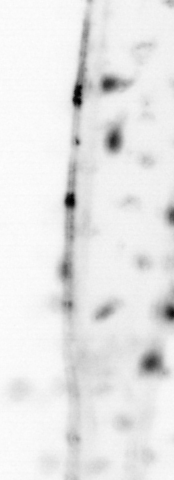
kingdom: Animalia
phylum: Chaetognatha
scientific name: Chaetognatha
